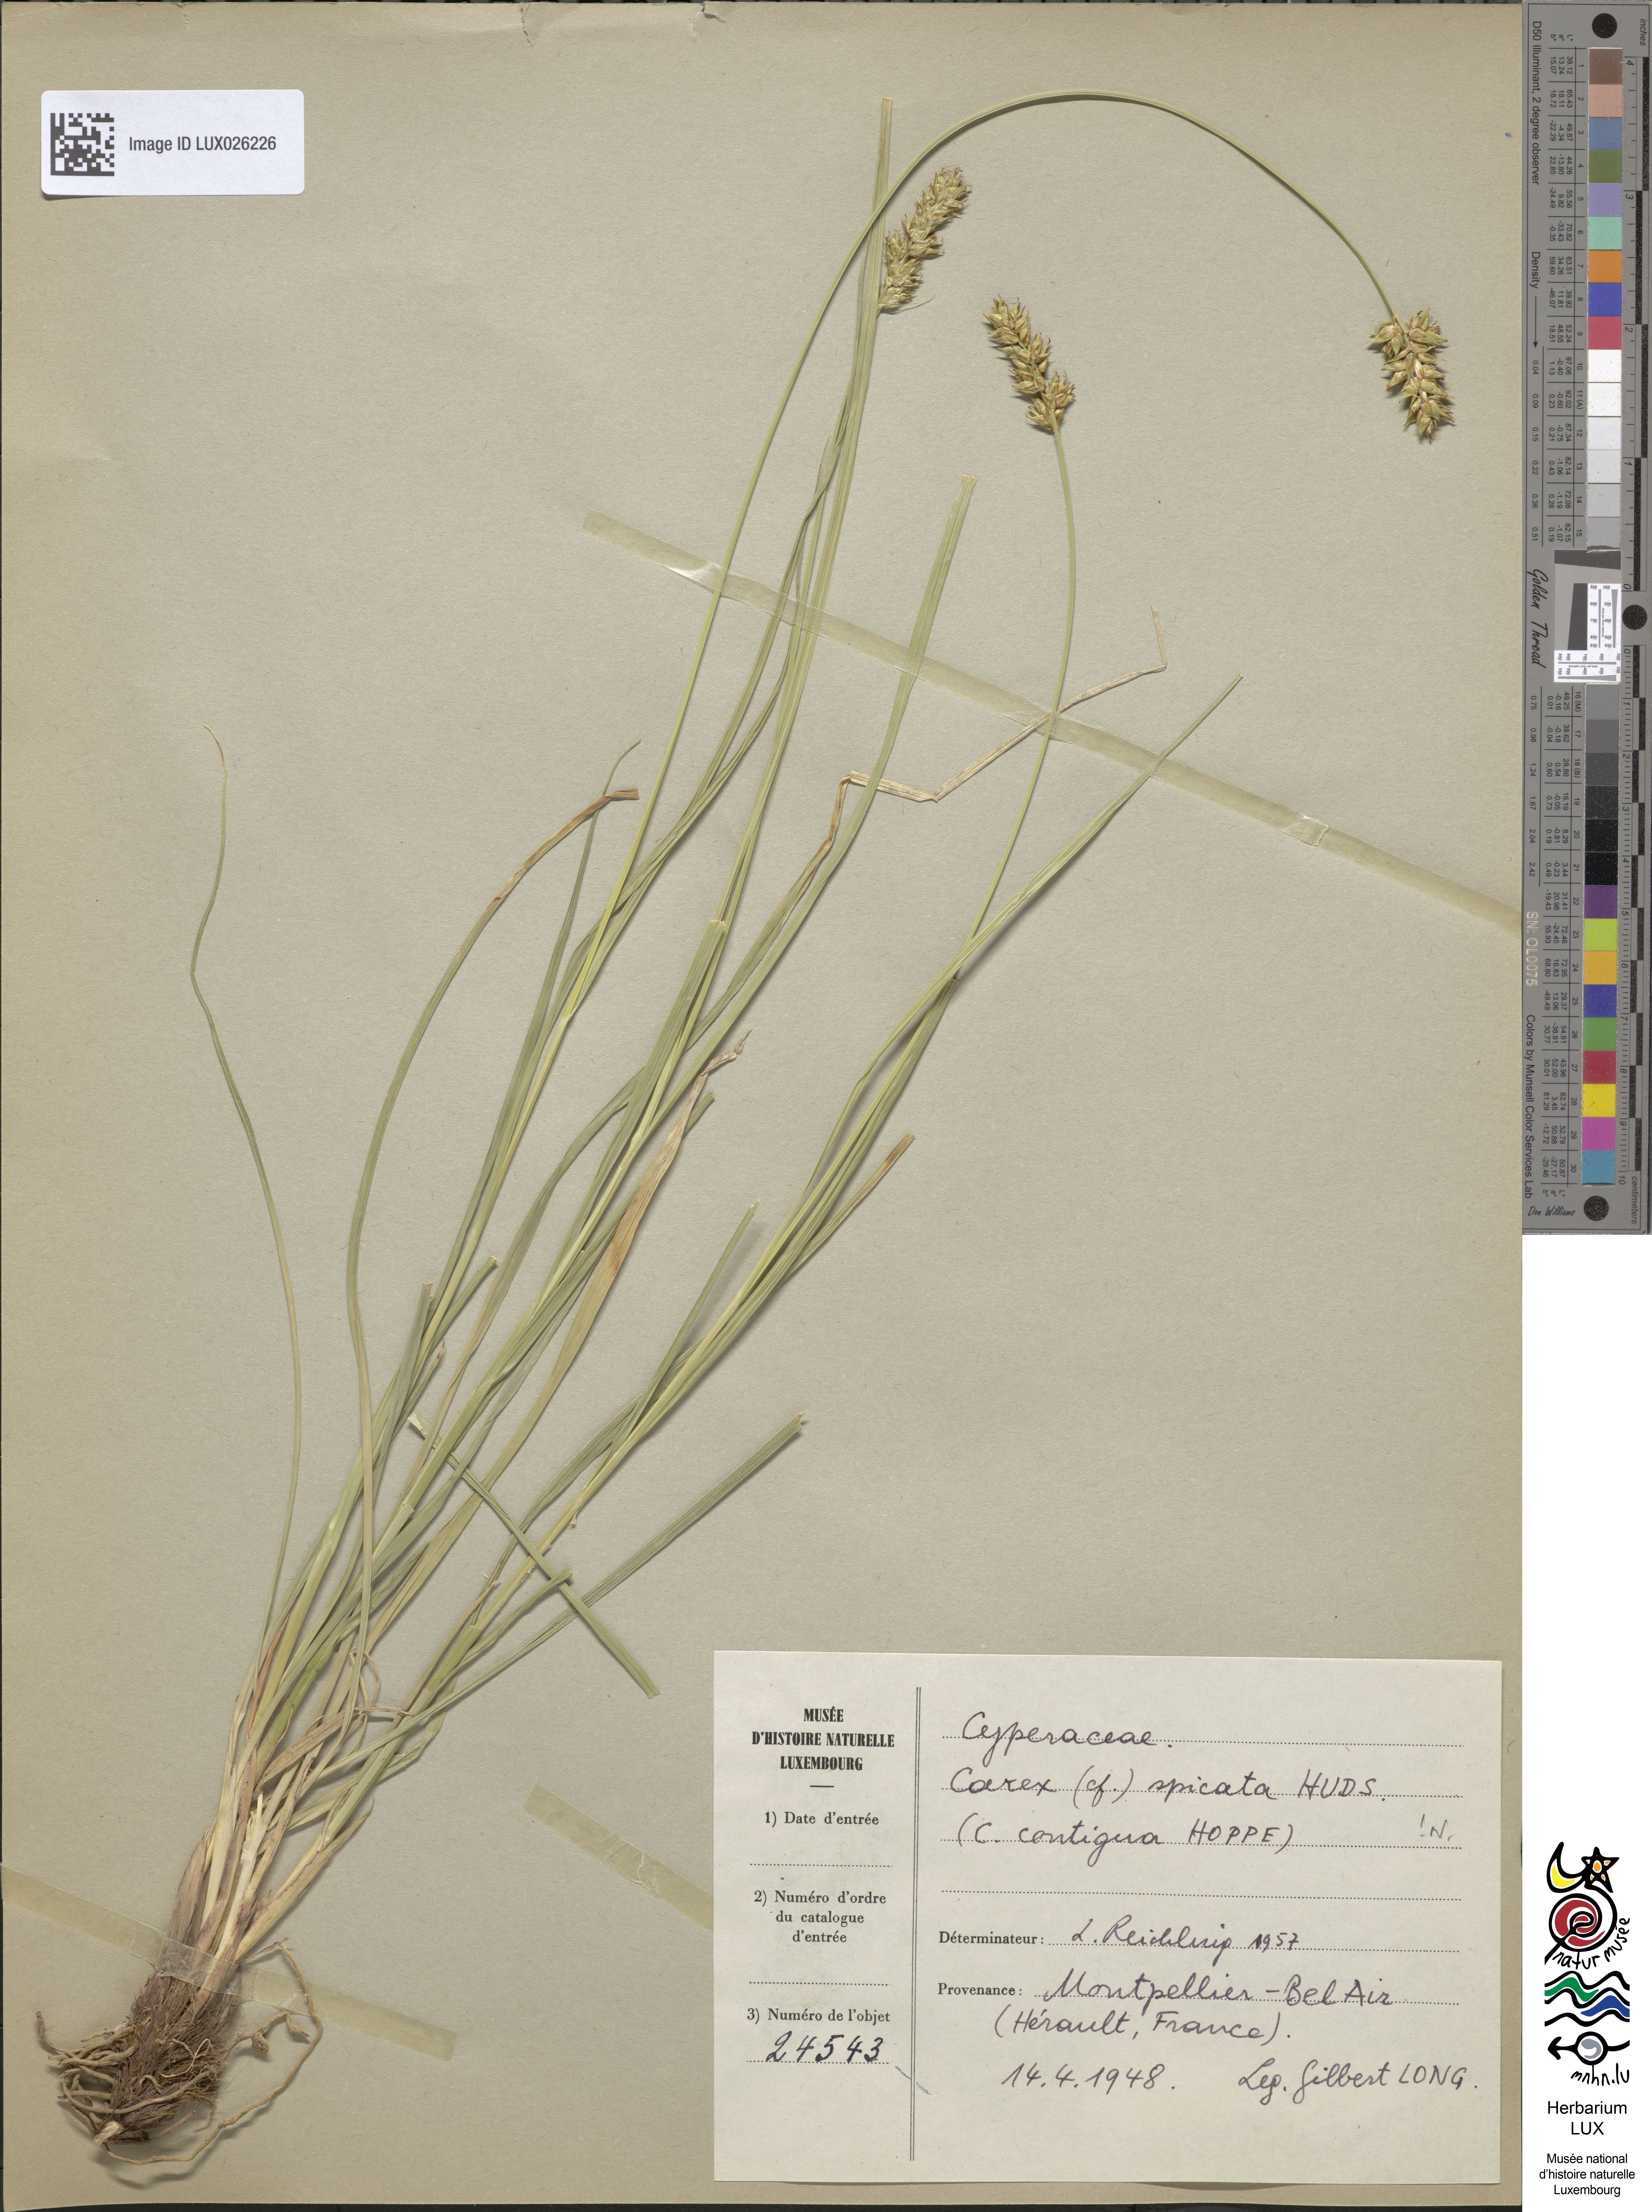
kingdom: Plantae
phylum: Tracheophyta
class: Liliopsida
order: Poales
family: Cyperaceae
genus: Carex
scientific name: Carex spicata
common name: Spiked sedge
